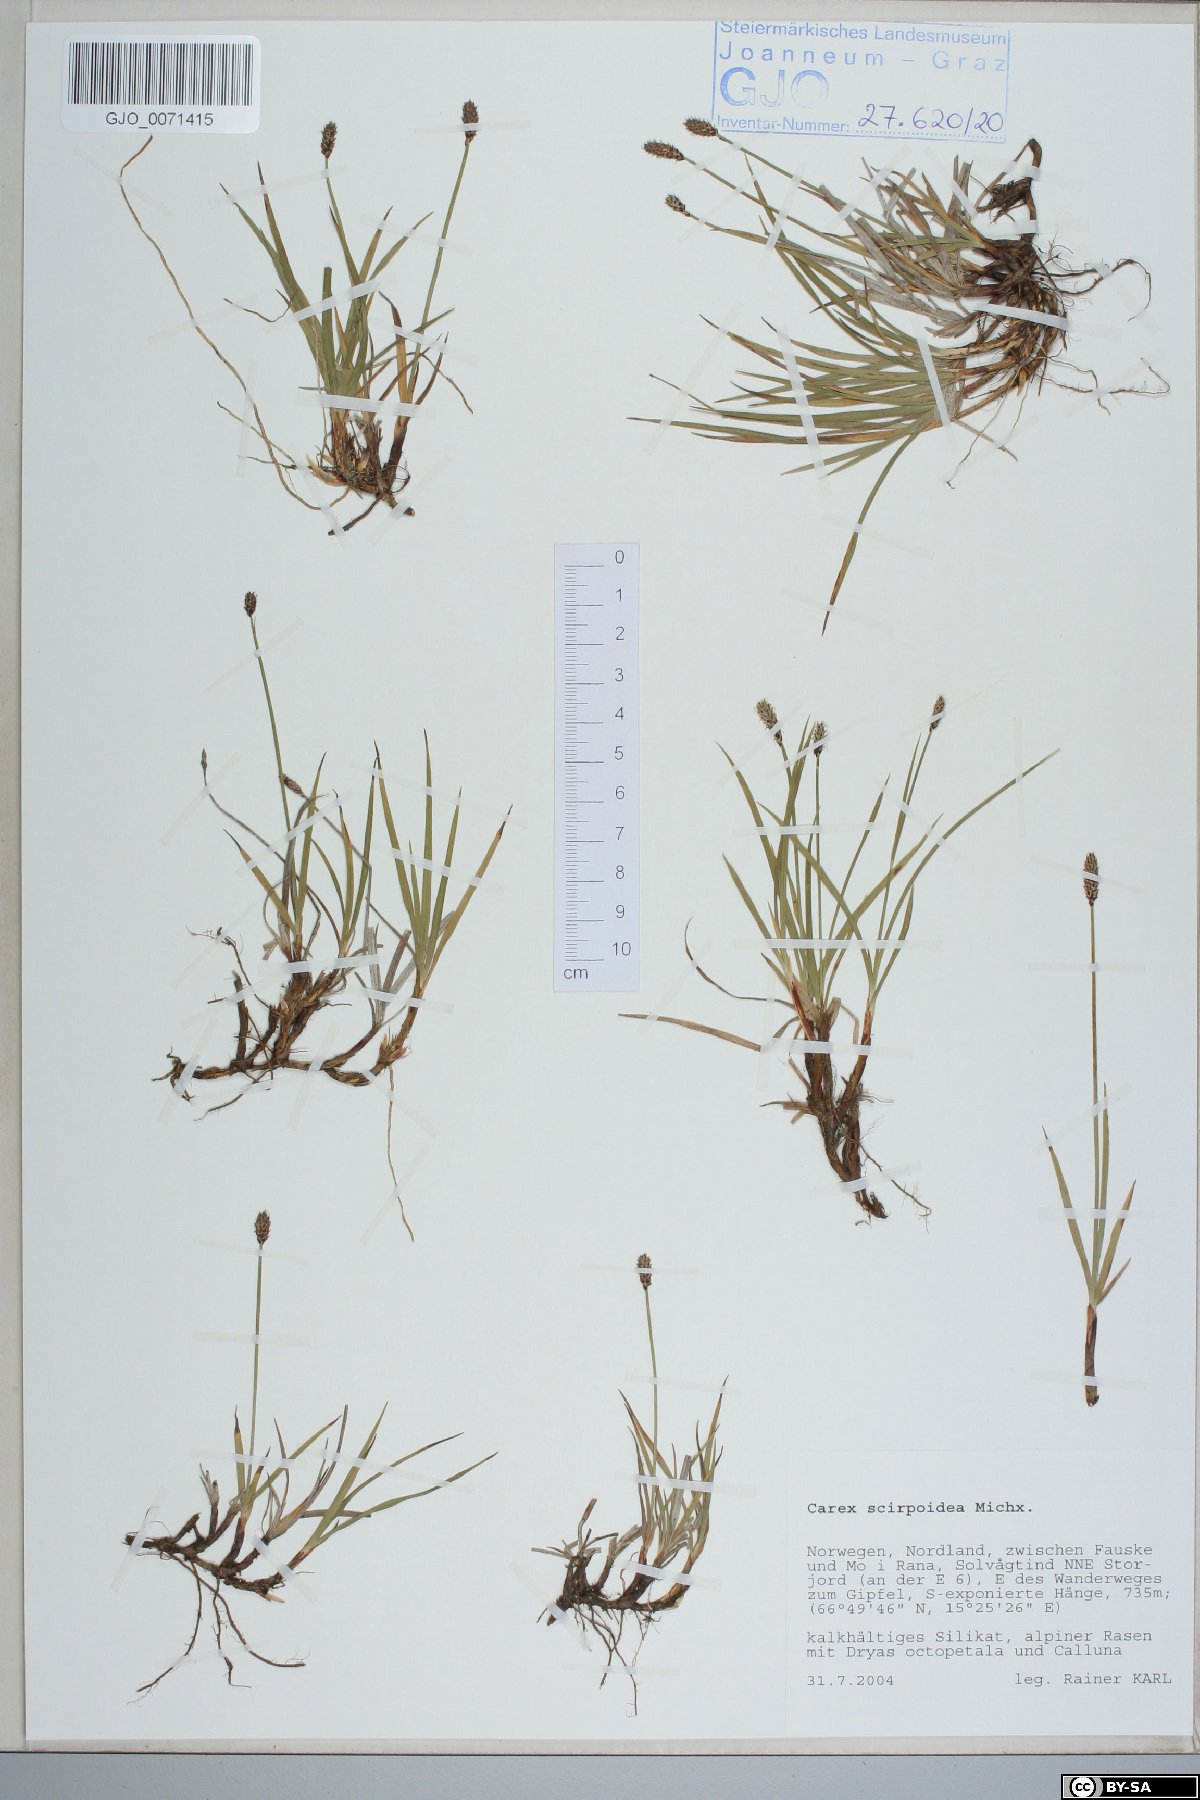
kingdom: Plantae
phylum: Tracheophyta
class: Liliopsida
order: Poales
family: Cyperaceae
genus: Carex
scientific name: Carex scirpoidea
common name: Canada single-spike sedge
